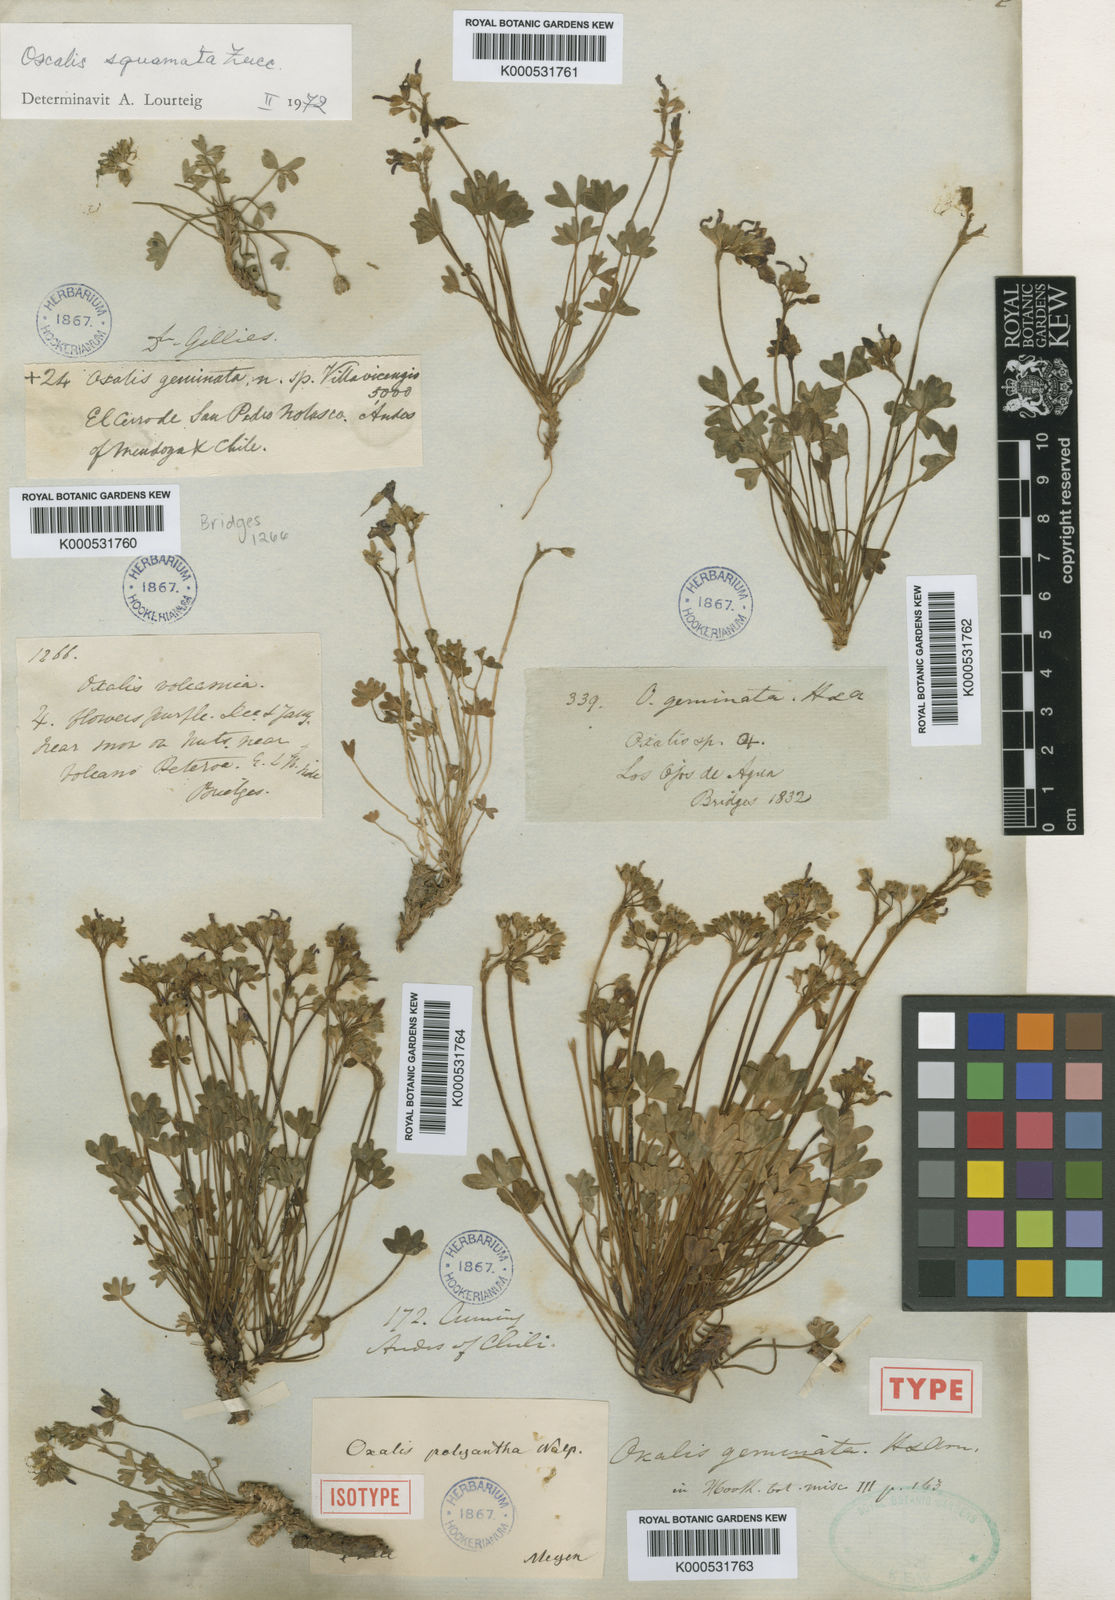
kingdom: Plantae
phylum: Tracheophyta
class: Magnoliopsida
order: Oxalidales
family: Oxalidaceae
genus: Oxalis
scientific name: Oxalis squamata
